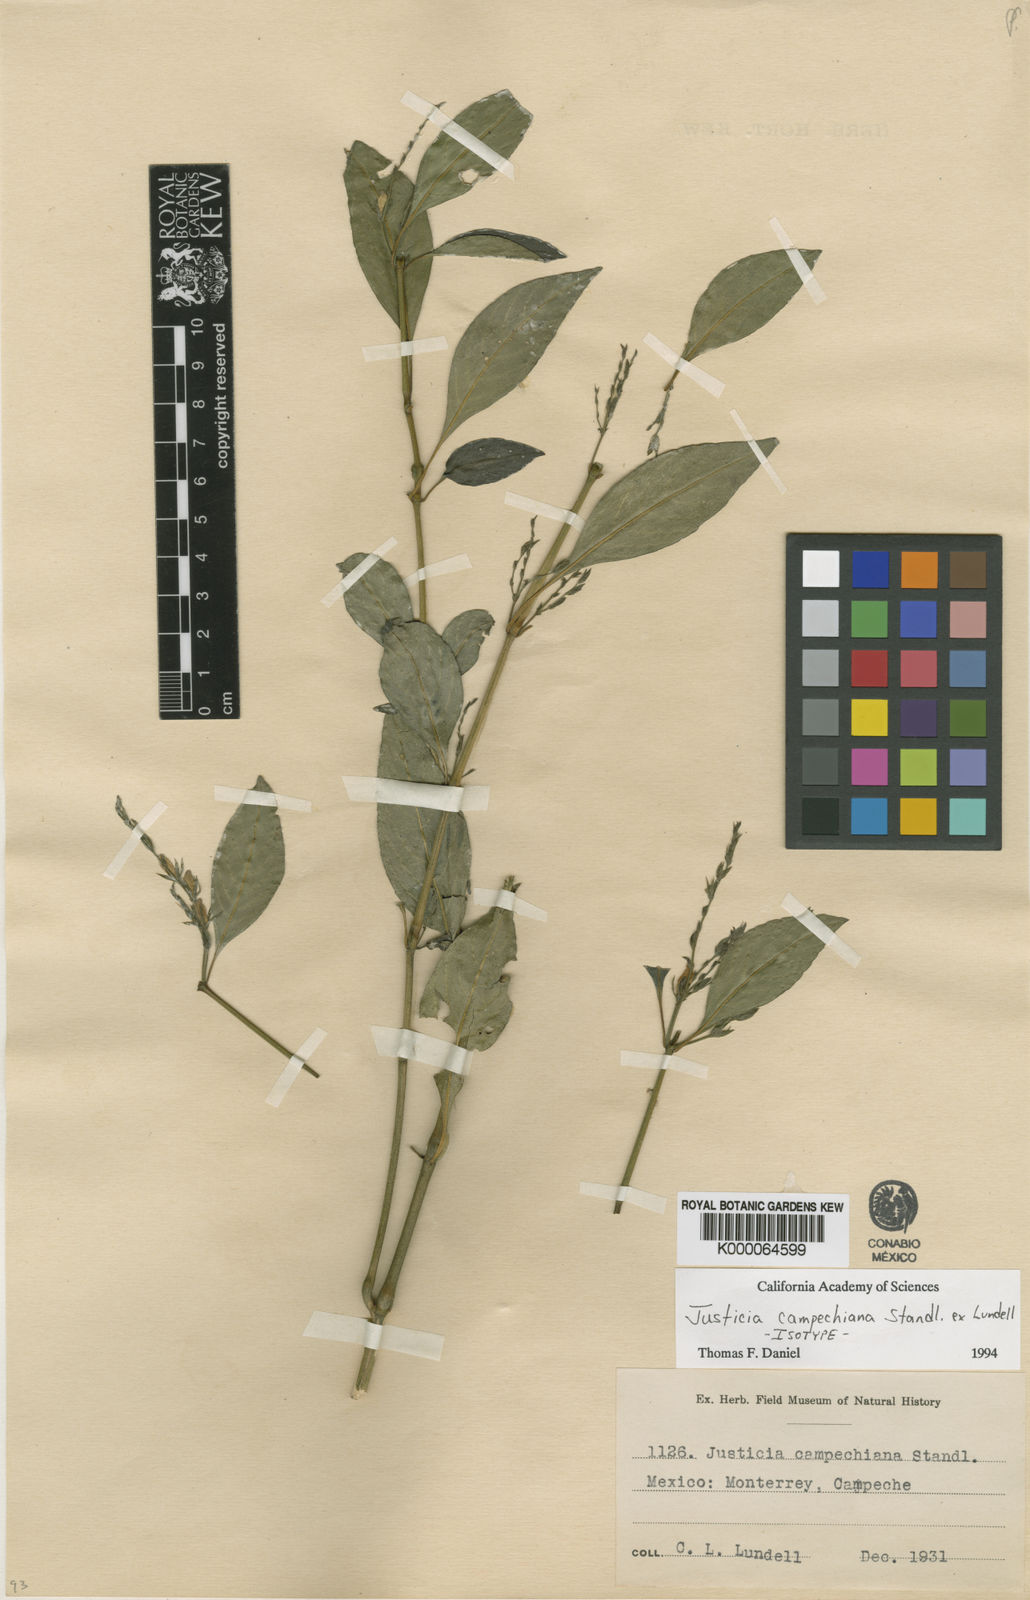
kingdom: Plantae
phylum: Tracheophyta
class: Magnoliopsida
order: Lamiales
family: Acanthaceae
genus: Justicia
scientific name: Justicia
